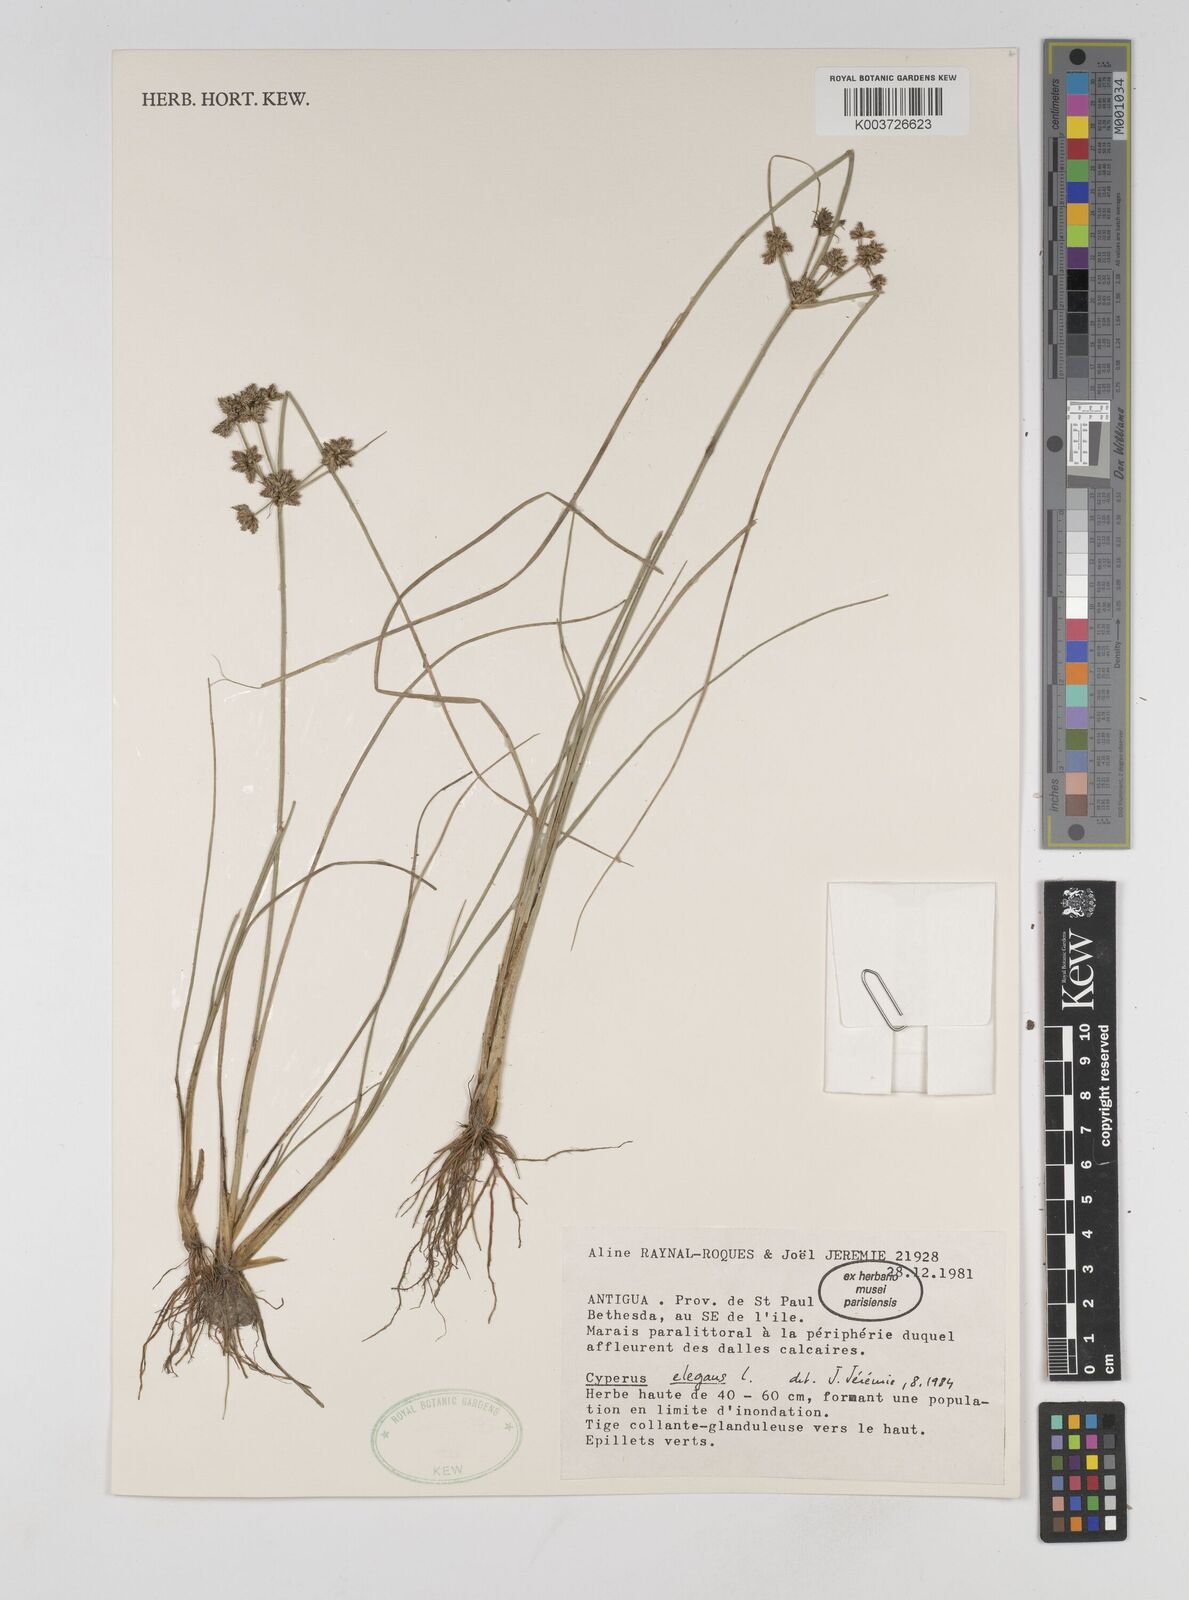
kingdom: Plantae
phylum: Tracheophyta
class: Liliopsida
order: Poales
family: Cyperaceae
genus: Cyperus
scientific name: Cyperus elegans
